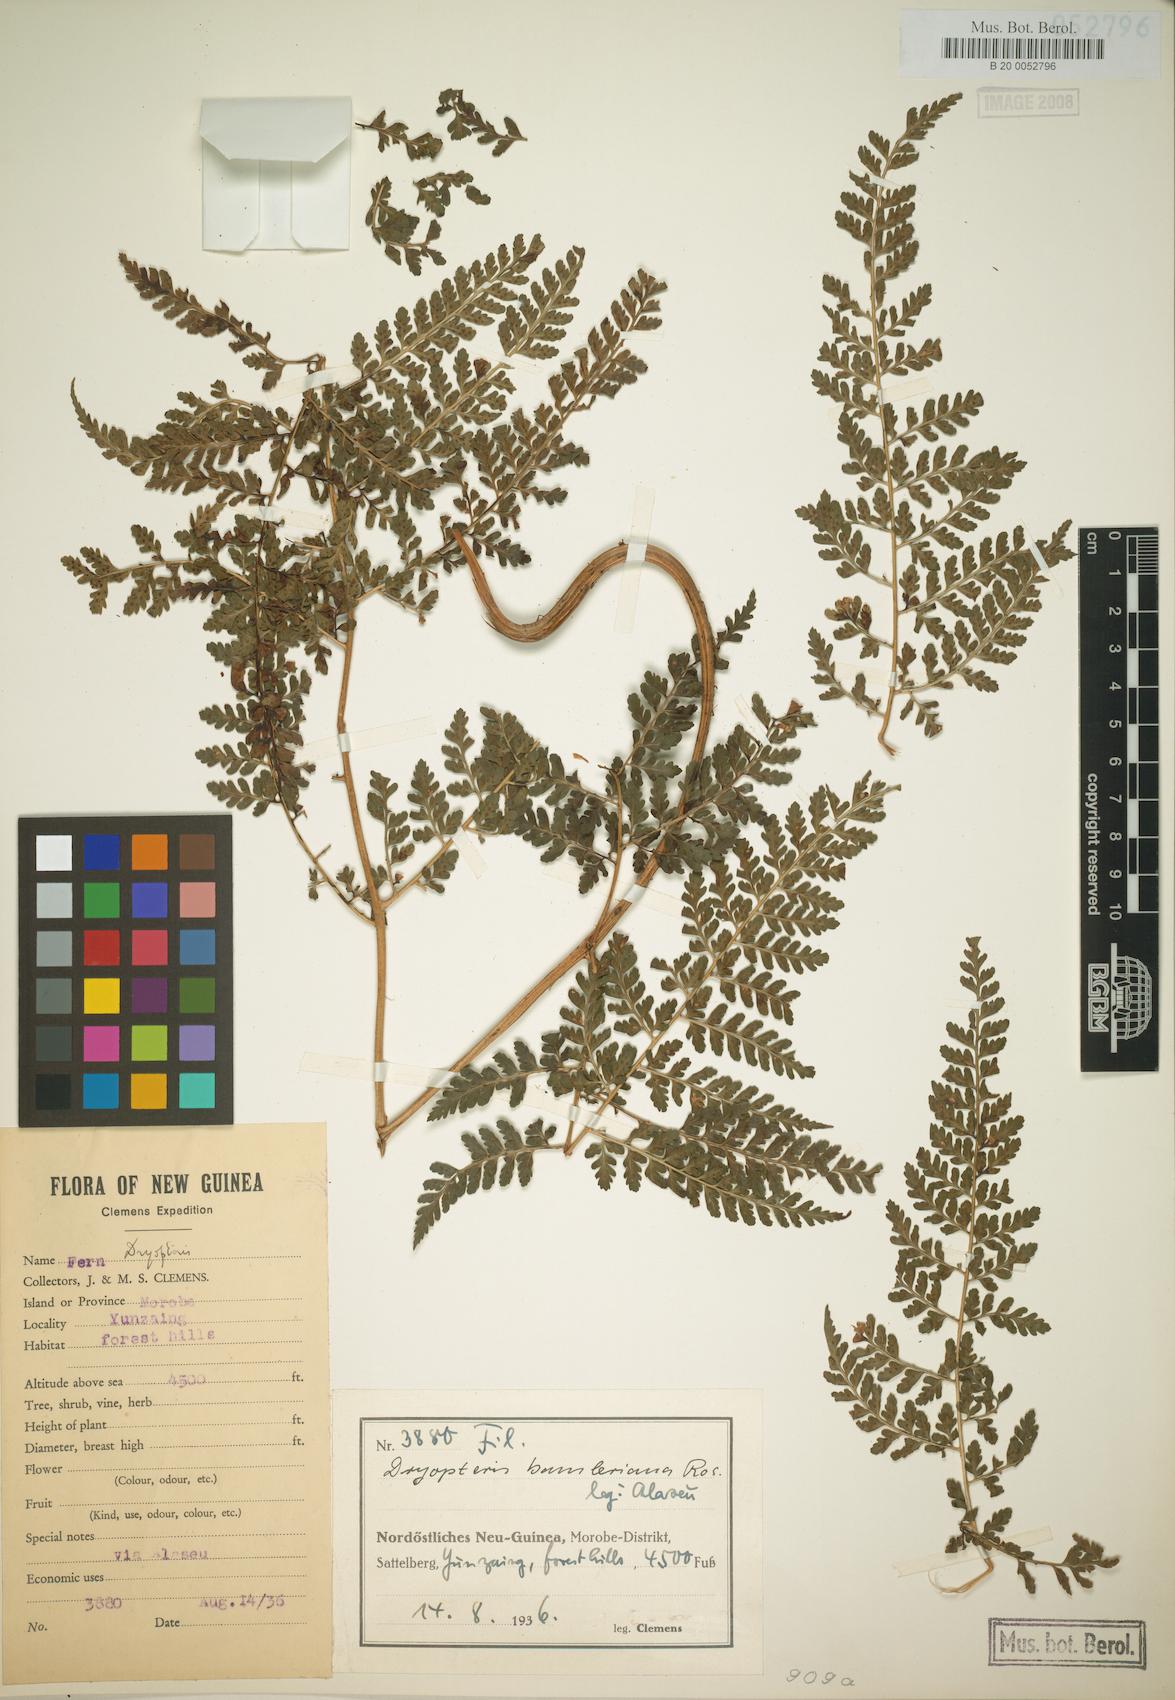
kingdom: Plantae
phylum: Tracheophyta
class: Polypodiopsida
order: Polypodiales
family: Dryopteridaceae
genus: Dryopteris
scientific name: Dryopteris bamleriana
